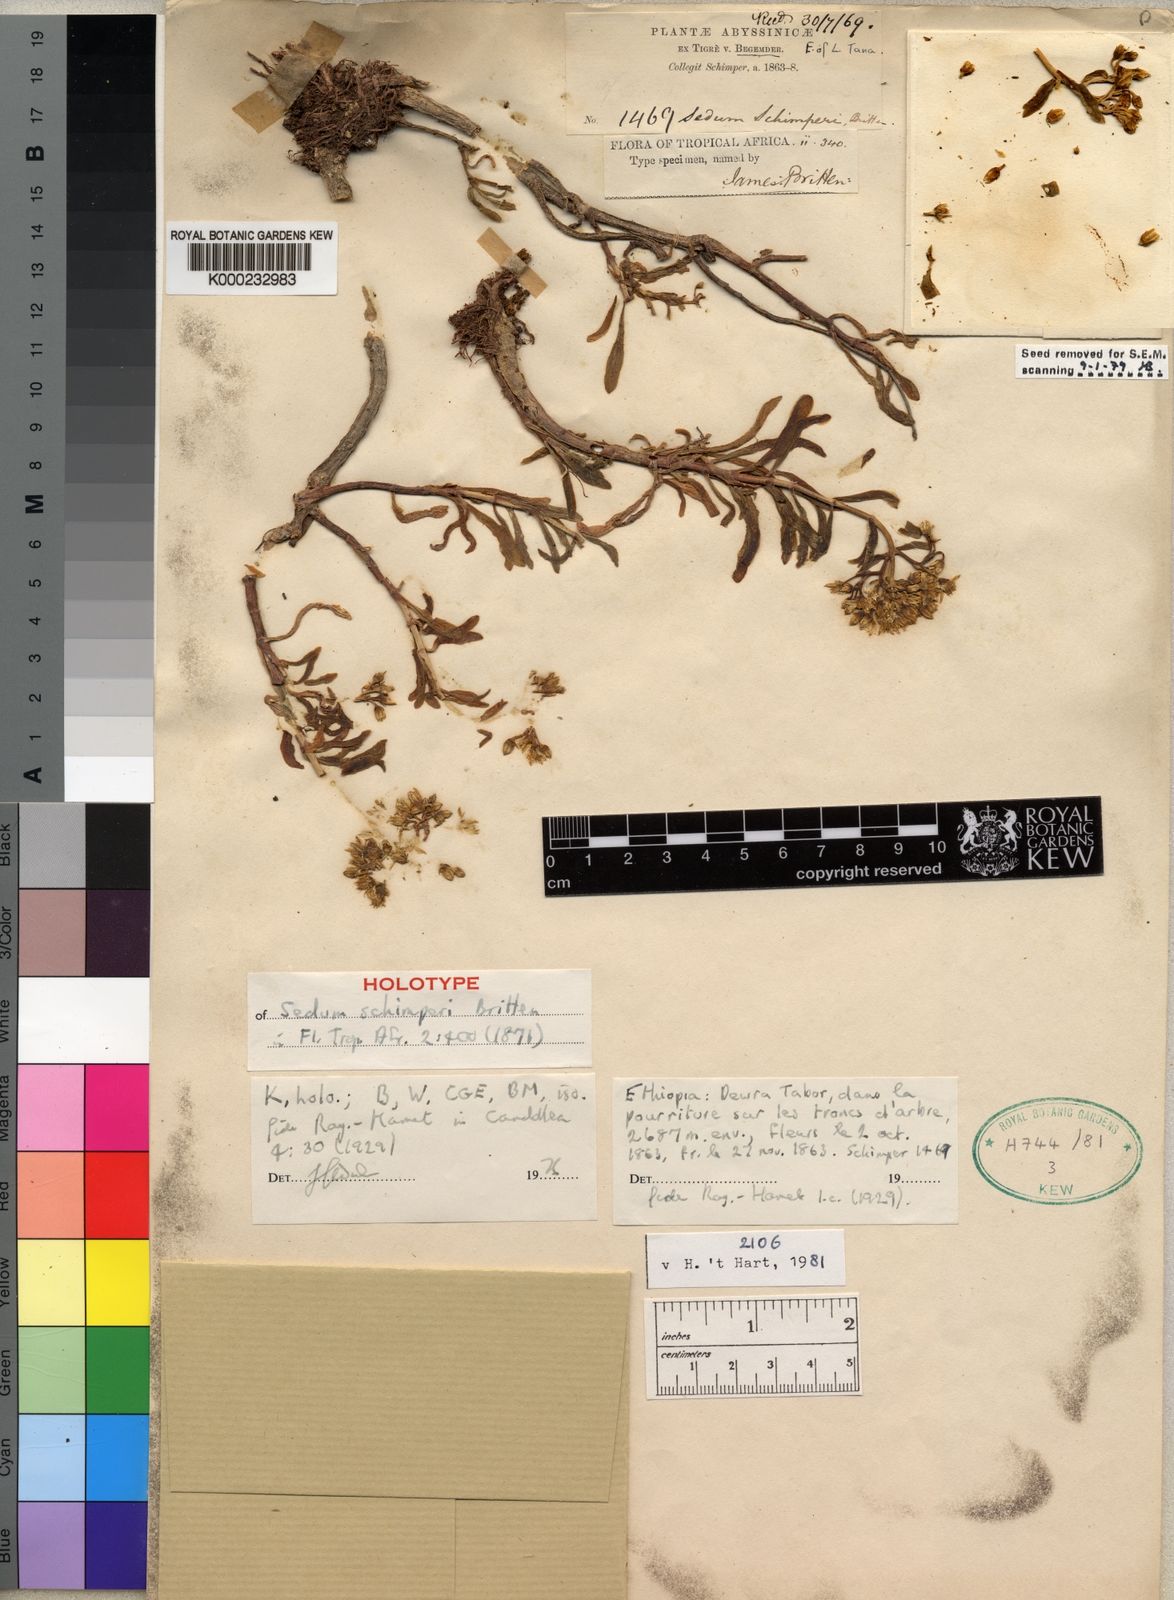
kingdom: Plantae
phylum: Tracheophyta
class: Magnoliopsida
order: Saxifragales
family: Crassulaceae
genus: Sedum
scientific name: Sedum epidendrum
